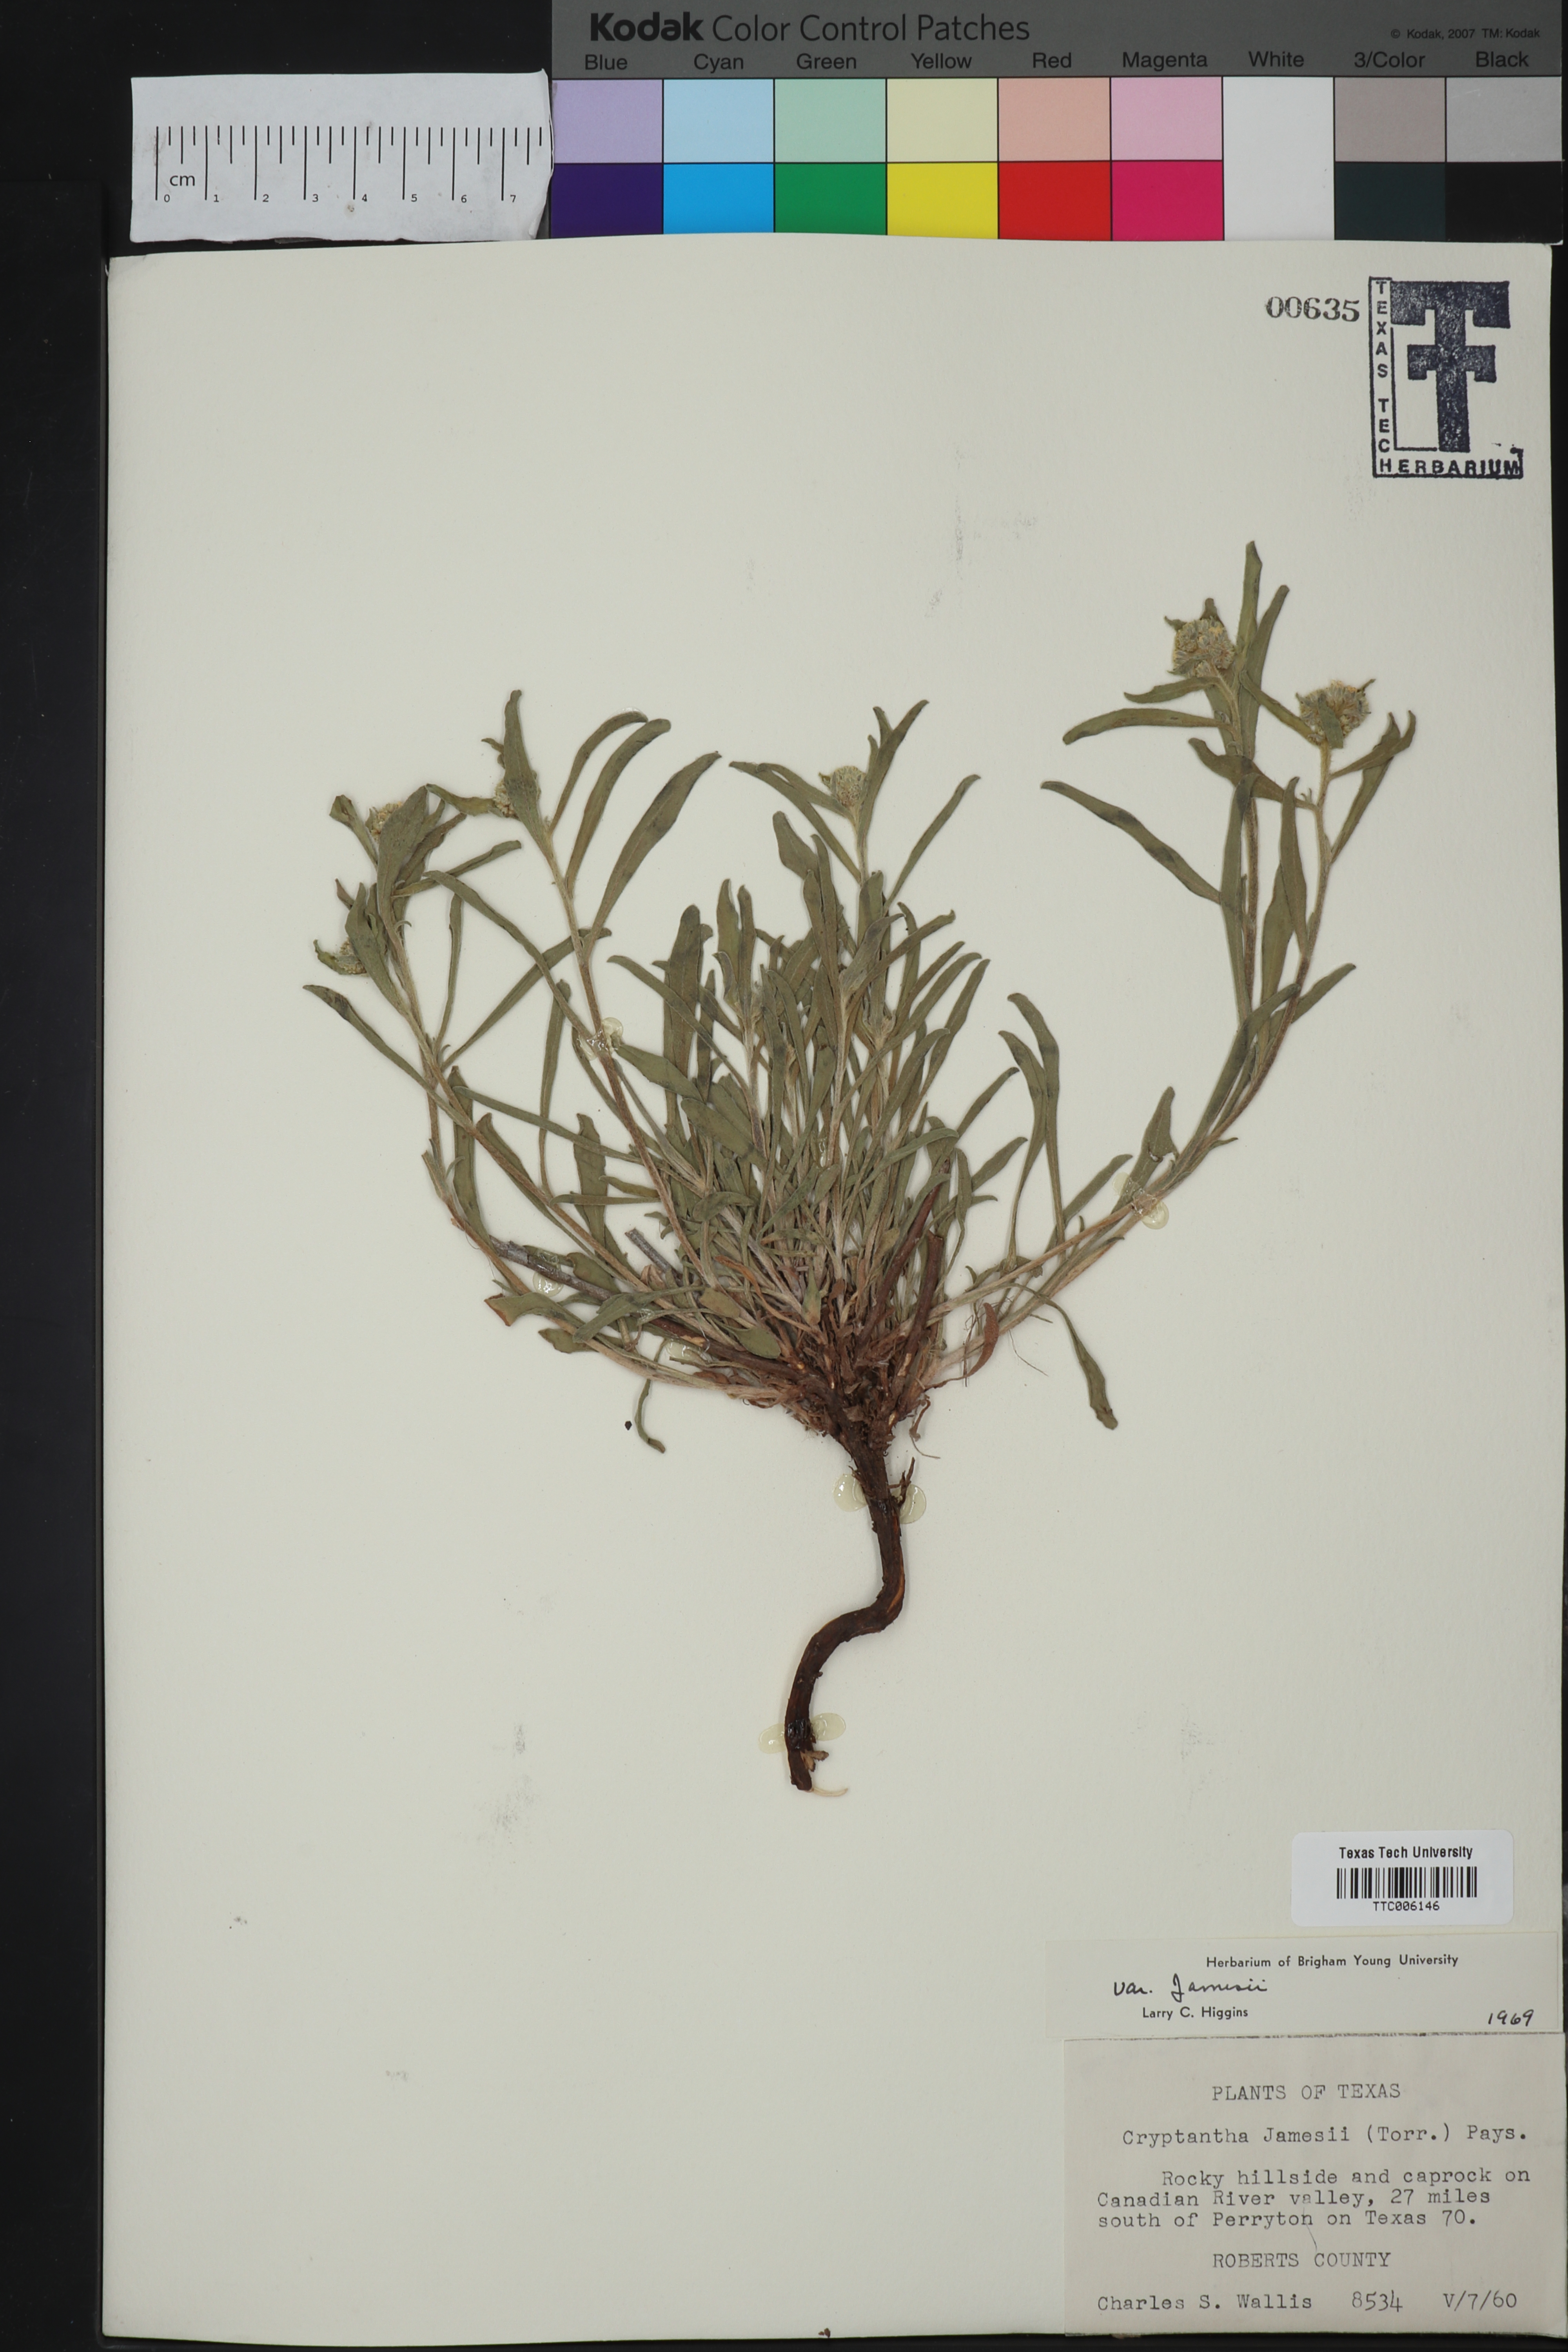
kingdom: Plantae
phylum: Tracheophyta
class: Magnoliopsida
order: Boraginales
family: Boraginaceae
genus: Oreocarya
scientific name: Oreocarya suffruticosa
